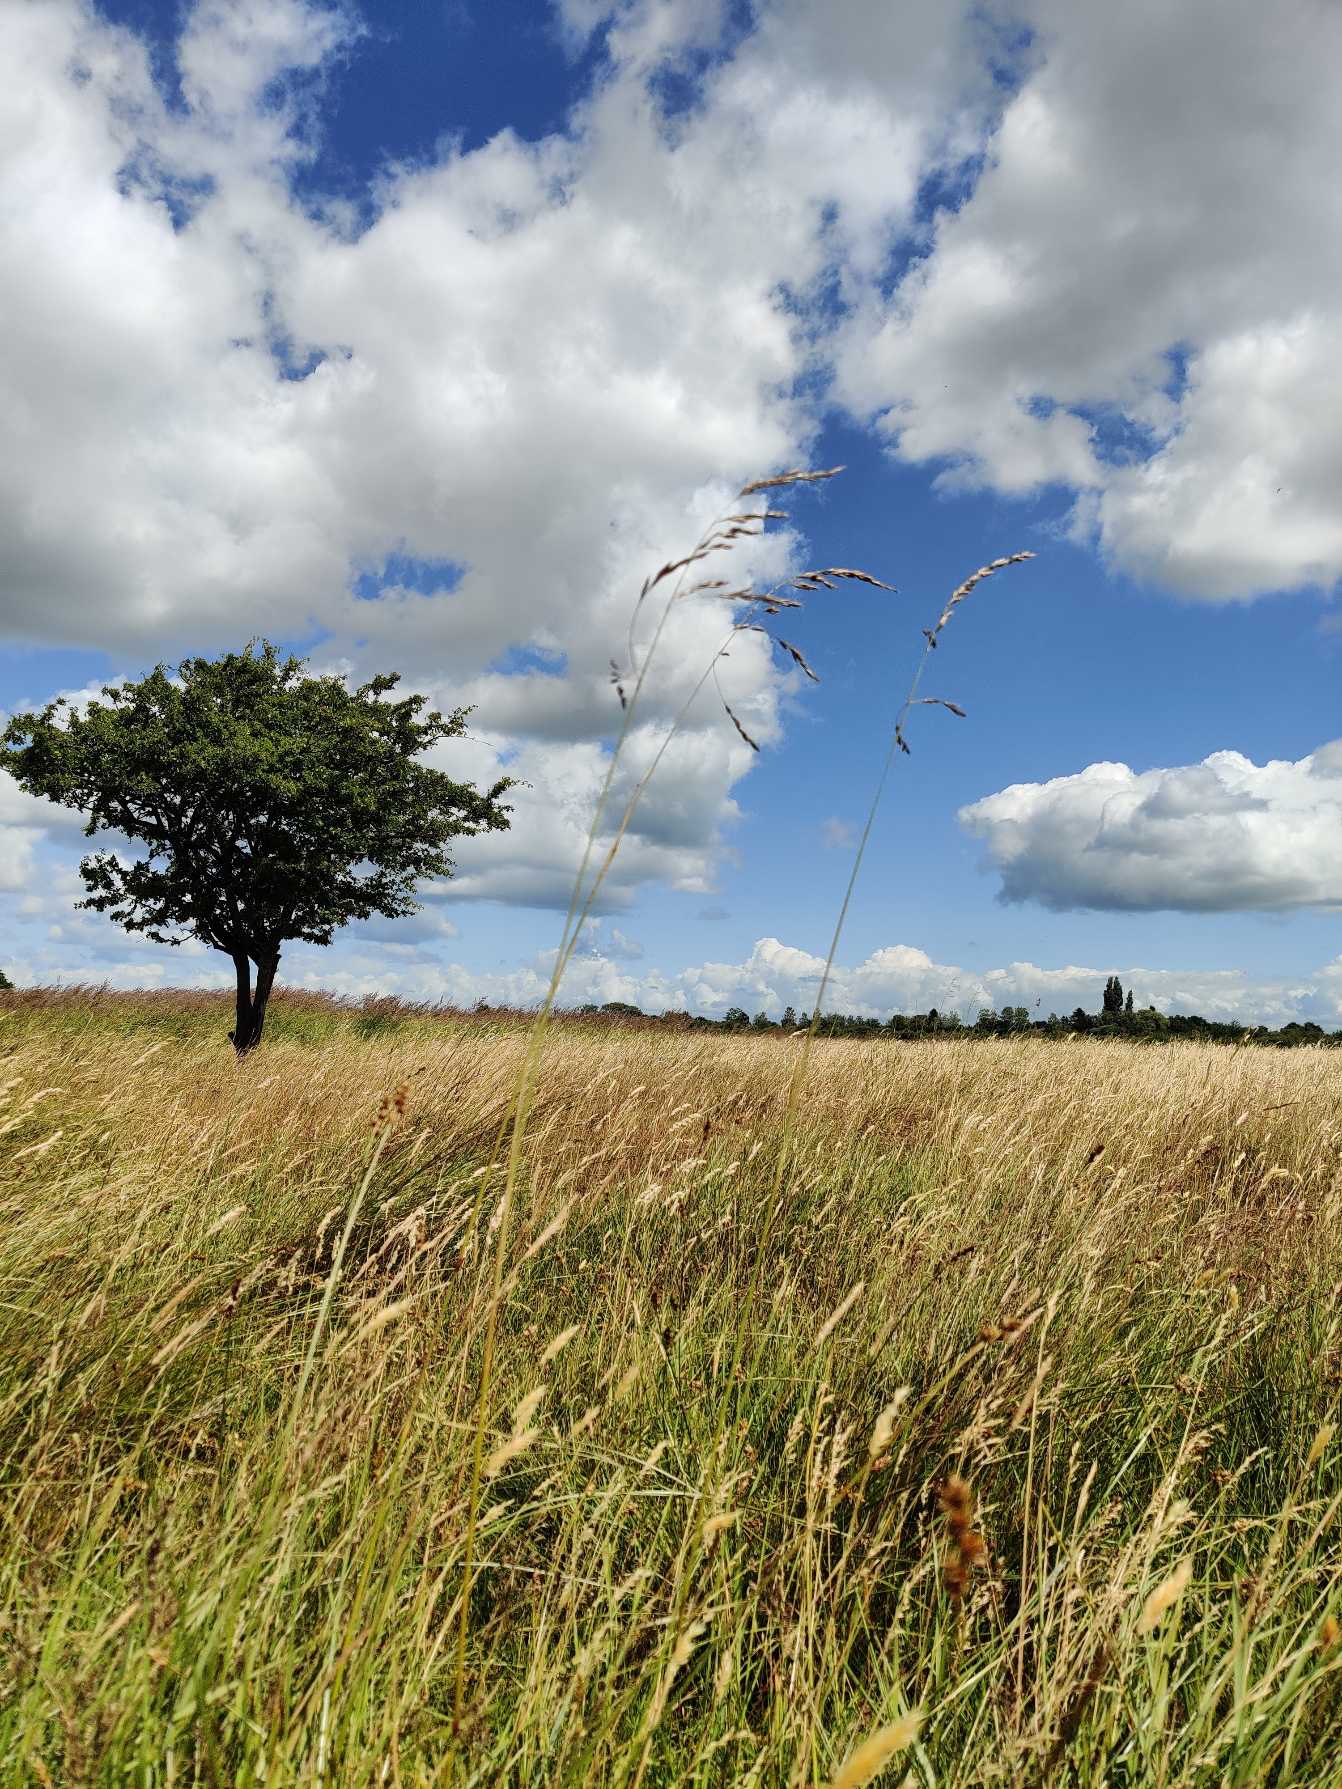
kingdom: Plantae
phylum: Tracheophyta
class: Liliopsida
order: Poales
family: Poaceae
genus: Lolium
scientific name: Lolium arundinaceum
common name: Strand-svingel
